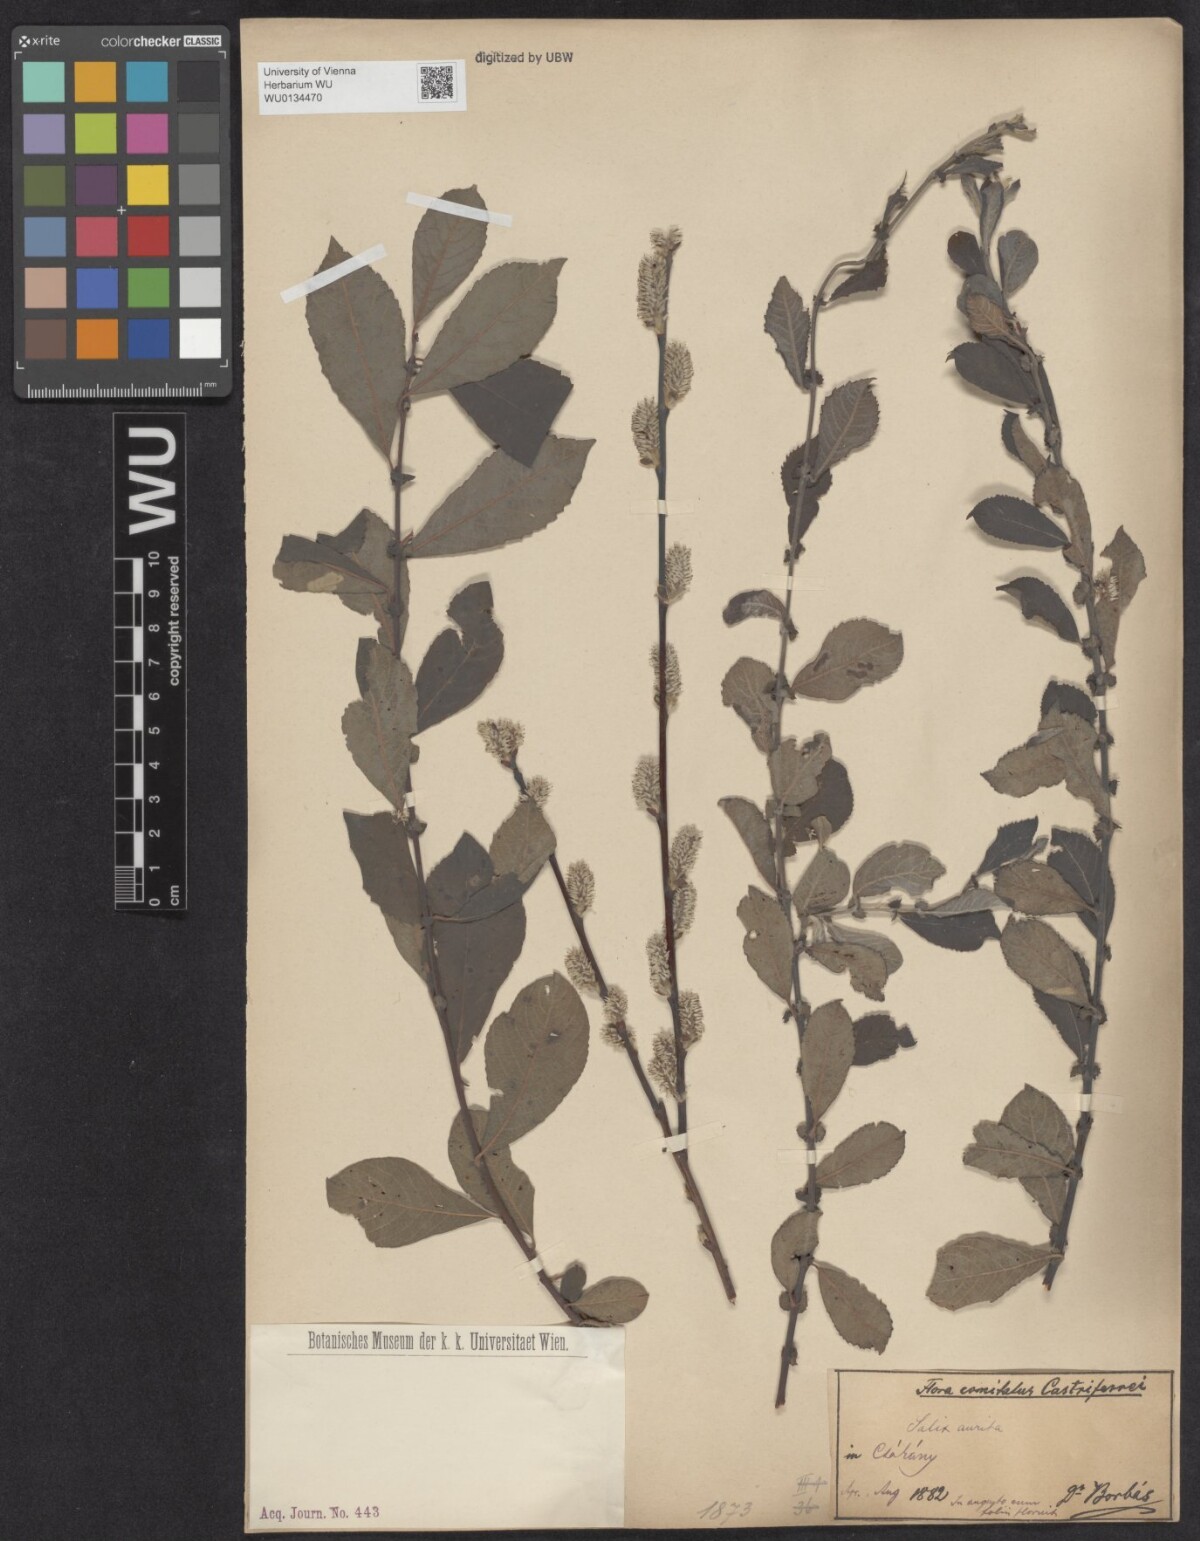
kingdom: Plantae
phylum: Tracheophyta
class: Magnoliopsida
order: Malpighiales
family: Salicaceae
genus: Salix
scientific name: Salix aurita
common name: Eared willow
